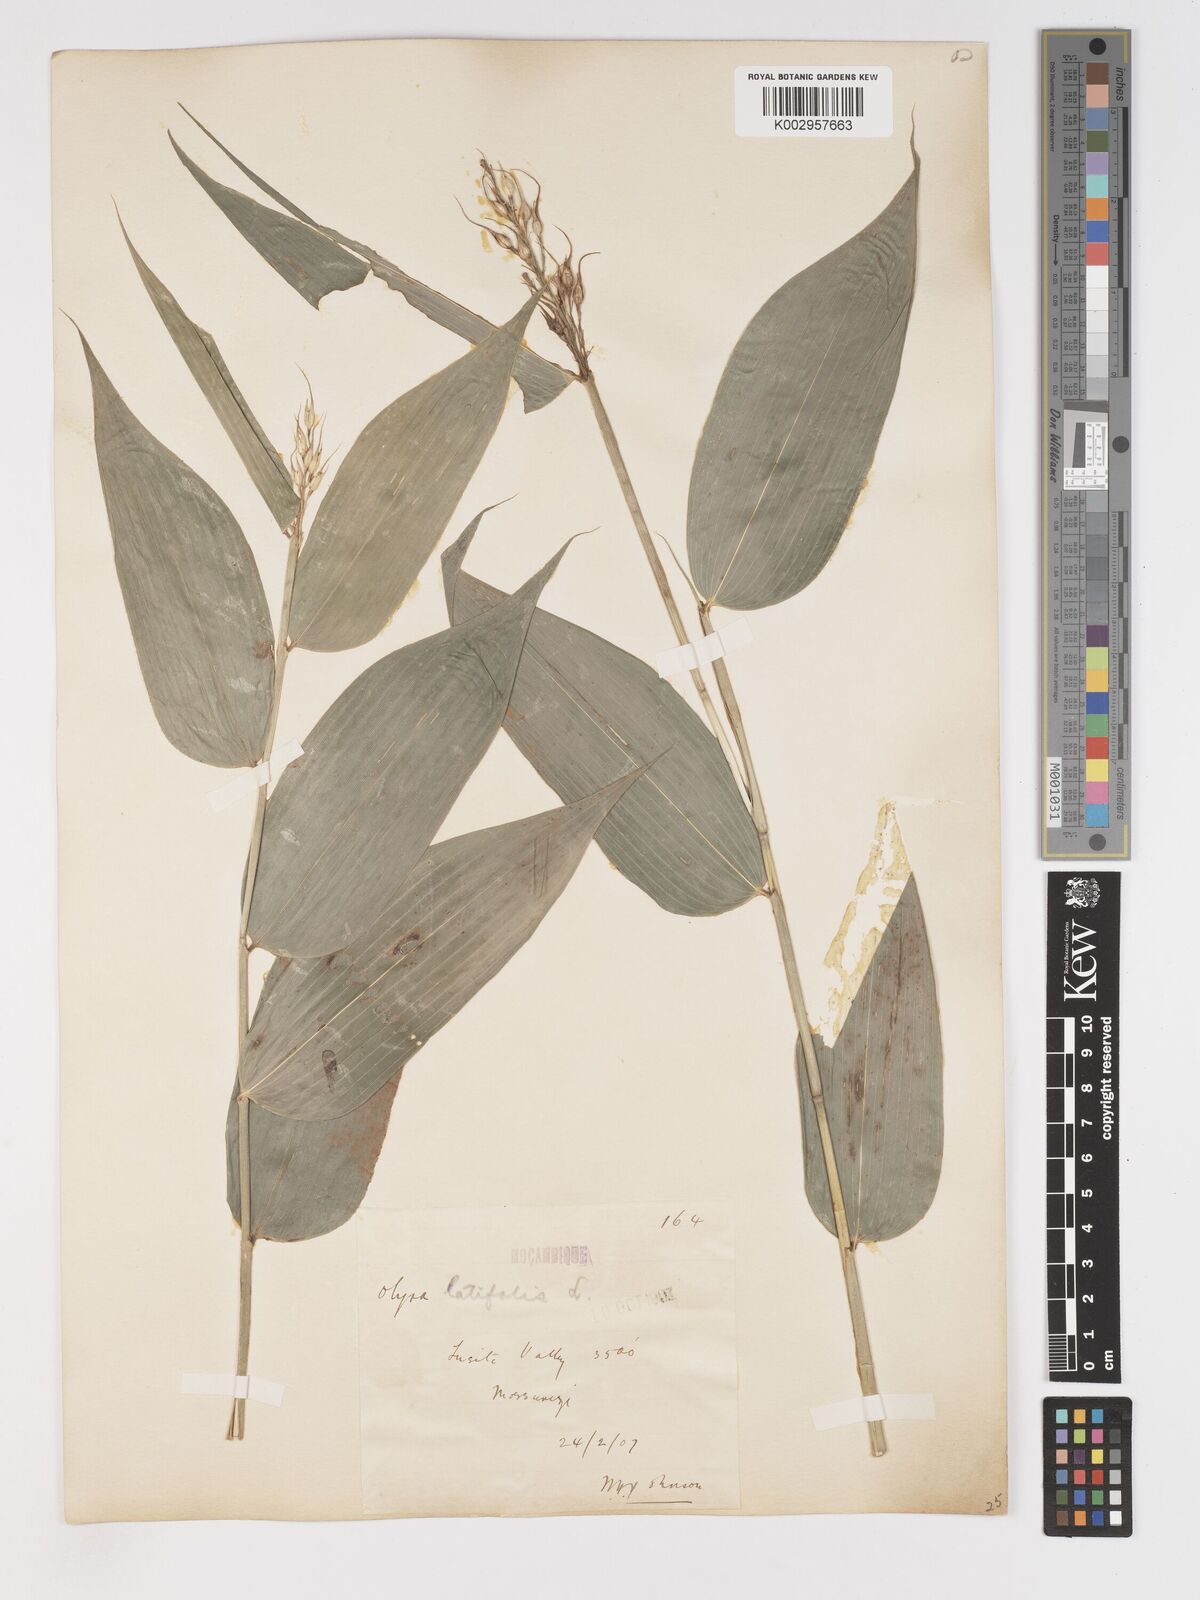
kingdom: Plantae
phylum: Tracheophyta
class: Liliopsida
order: Poales
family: Poaceae
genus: Olyra
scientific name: Olyra latifolia
